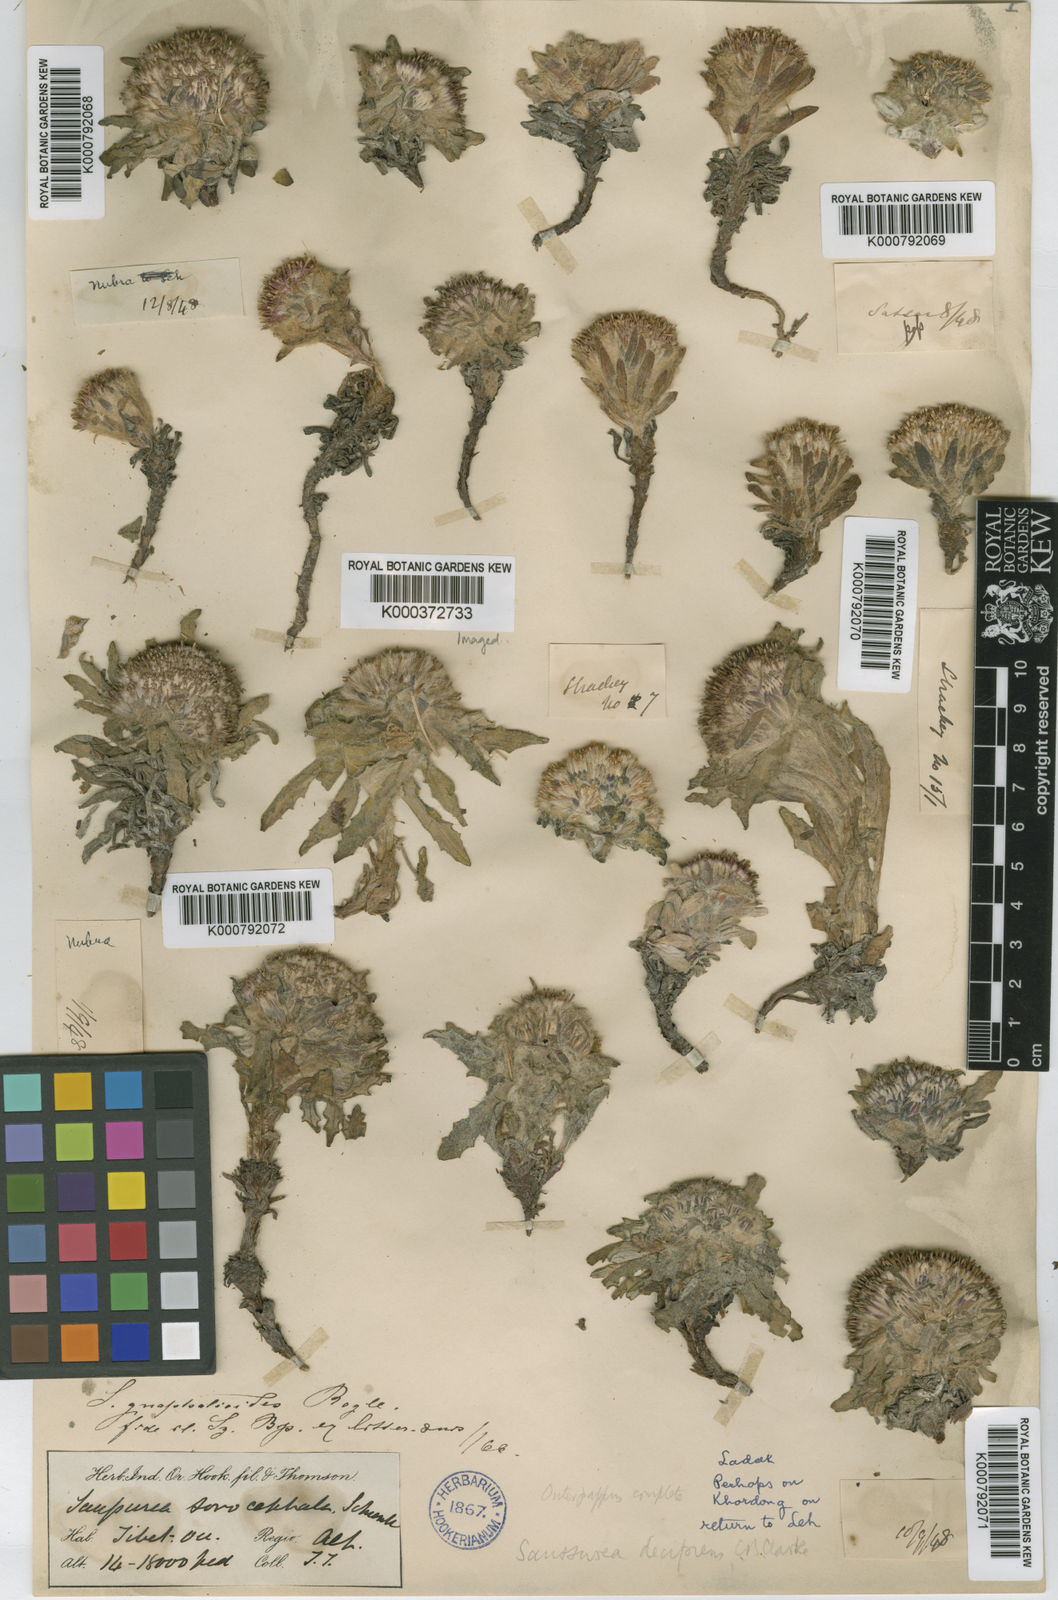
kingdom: Plantae
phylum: Tracheophyta
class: Magnoliopsida
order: Asterales
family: Asteraceae
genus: Saussurea
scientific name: Saussurea gnaphalodes
